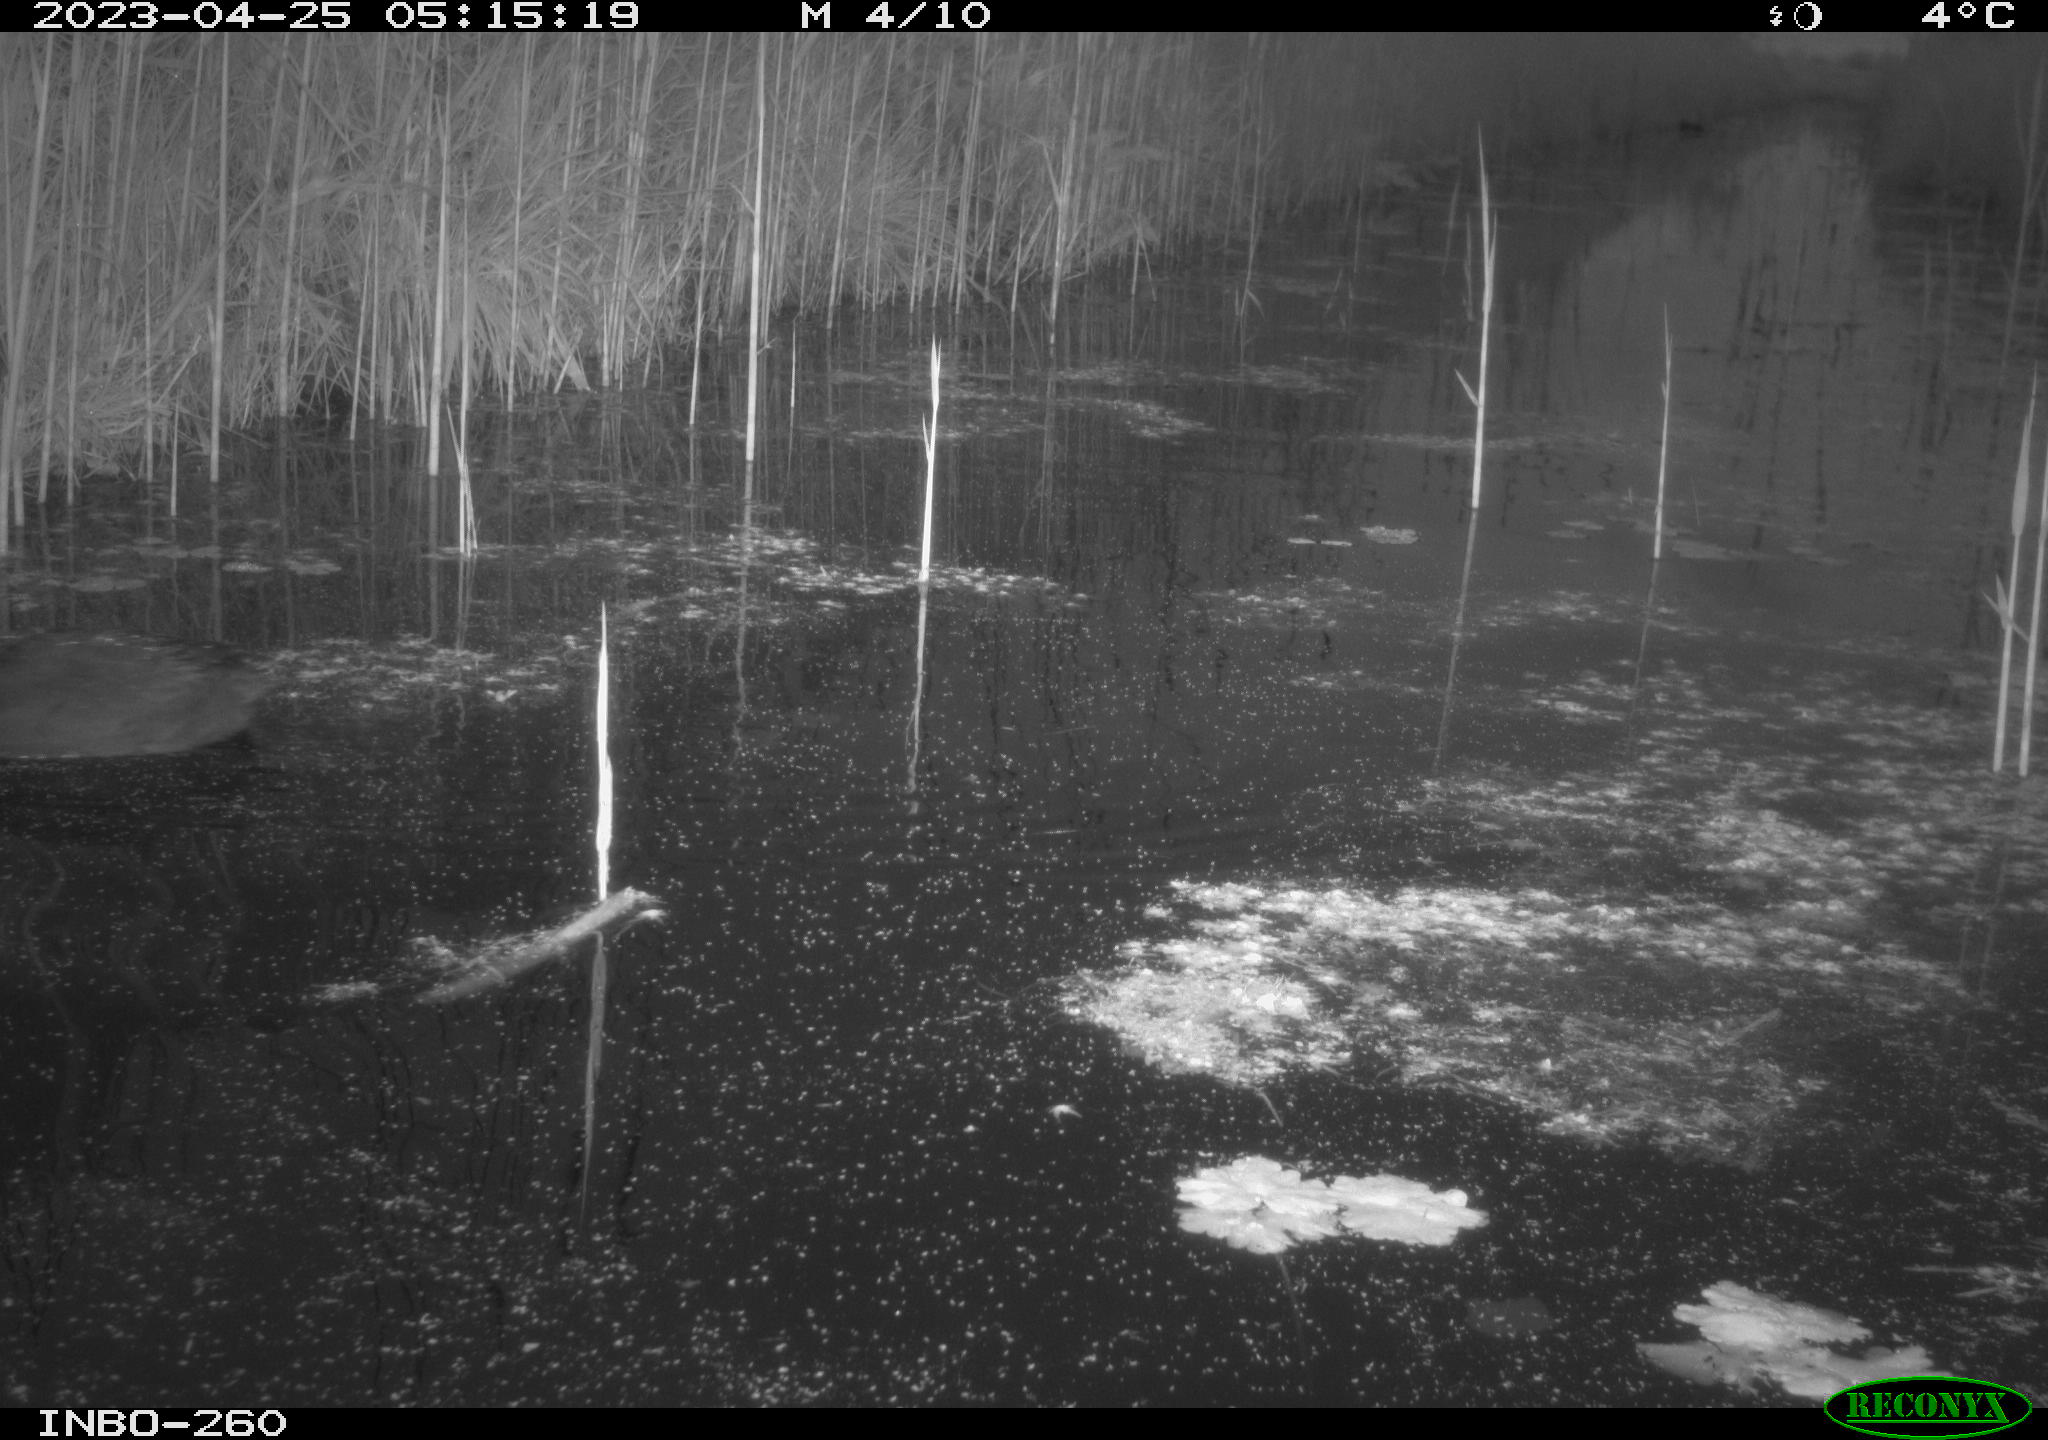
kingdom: Animalia
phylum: Chordata
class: Aves
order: Anseriformes
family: Anatidae
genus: Anas
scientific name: Anas
